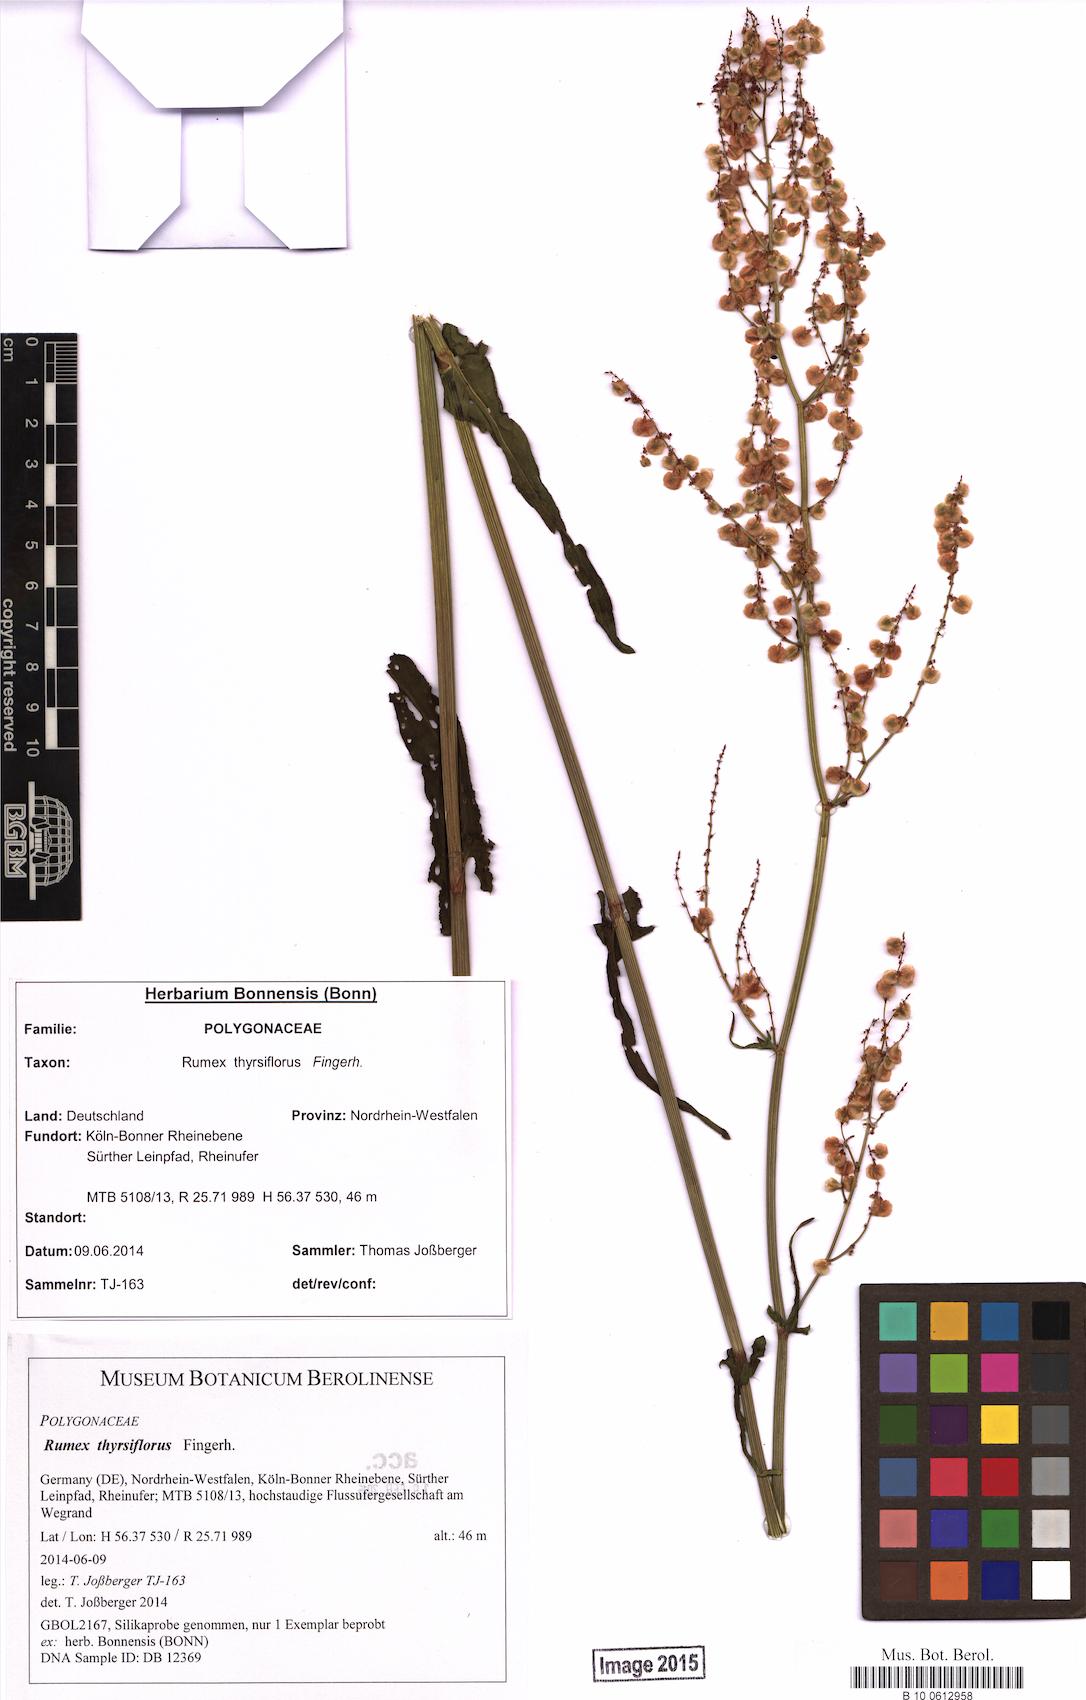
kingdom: Plantae
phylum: Tracheophyta
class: Magnoliopsida
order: Caryophyllales
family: Polygonaceae
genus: Rumex
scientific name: Rumex thyrsiflorus
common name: Garden sorrel
